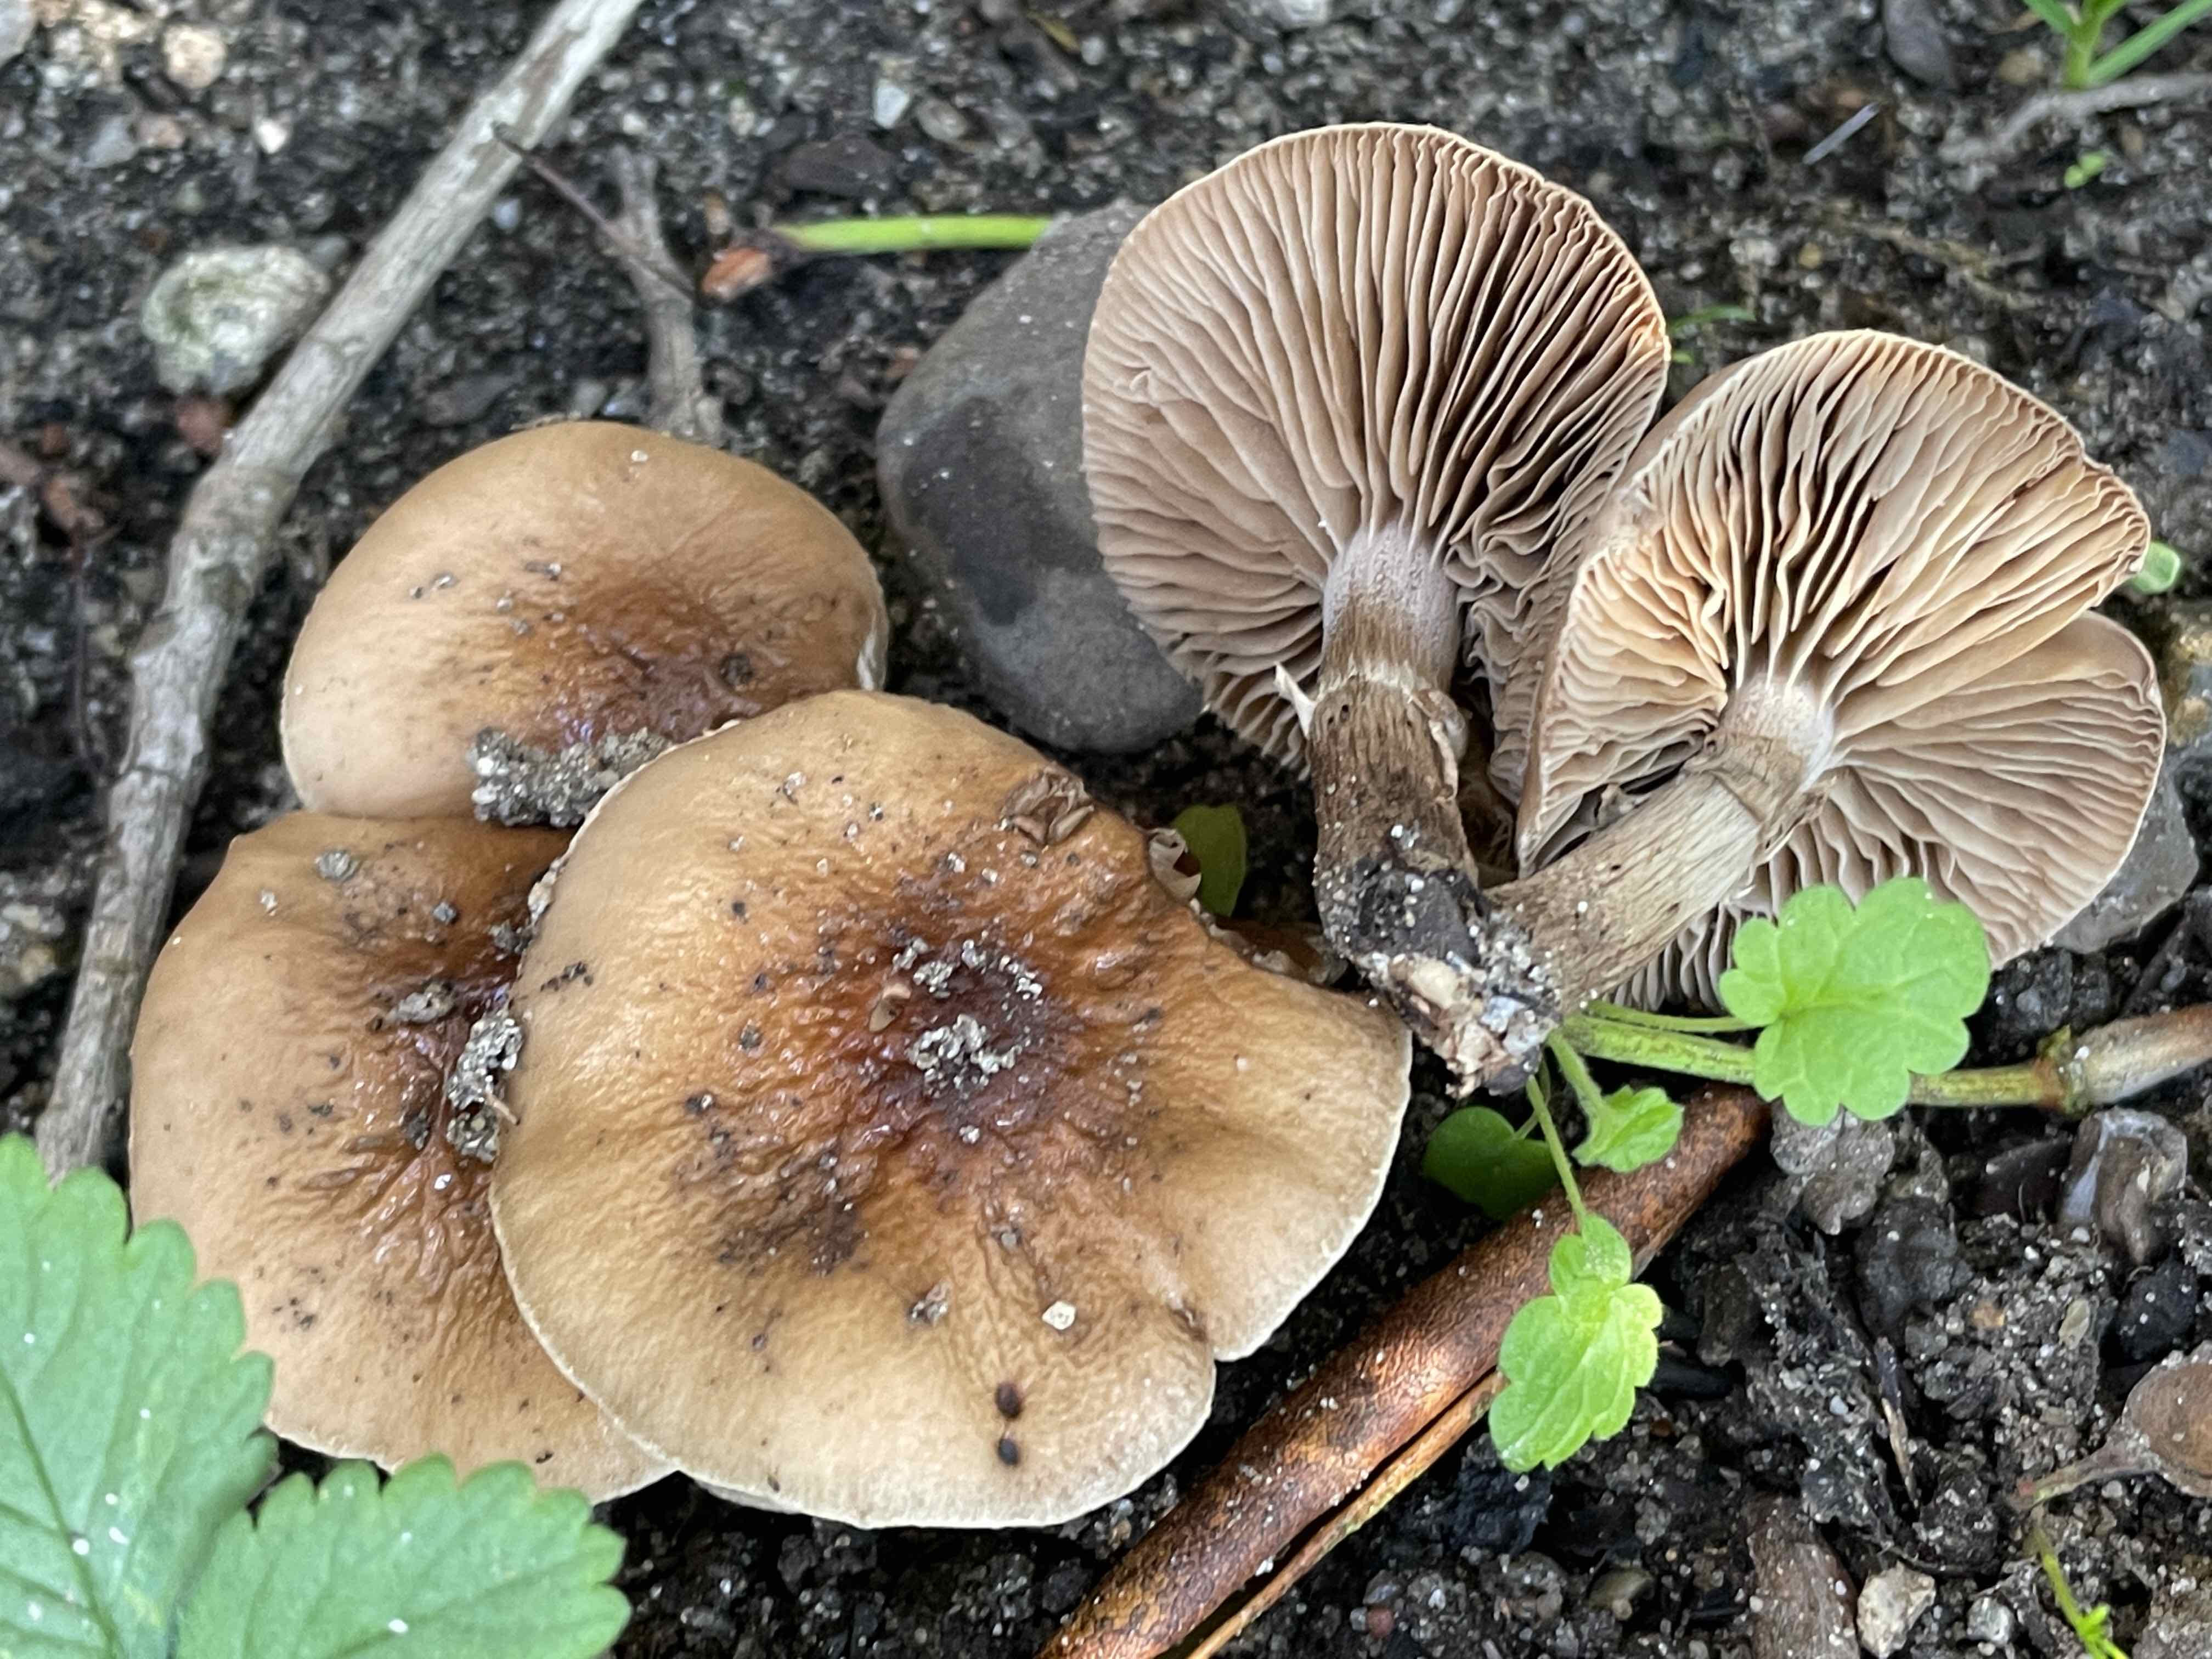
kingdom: Fungi
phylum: Basidiomycota
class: Agaricomycetes
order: Agaricales
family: Tubariaceae
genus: Cyclocybe
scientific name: Cyclocybe erebia
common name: mørk agerhat
